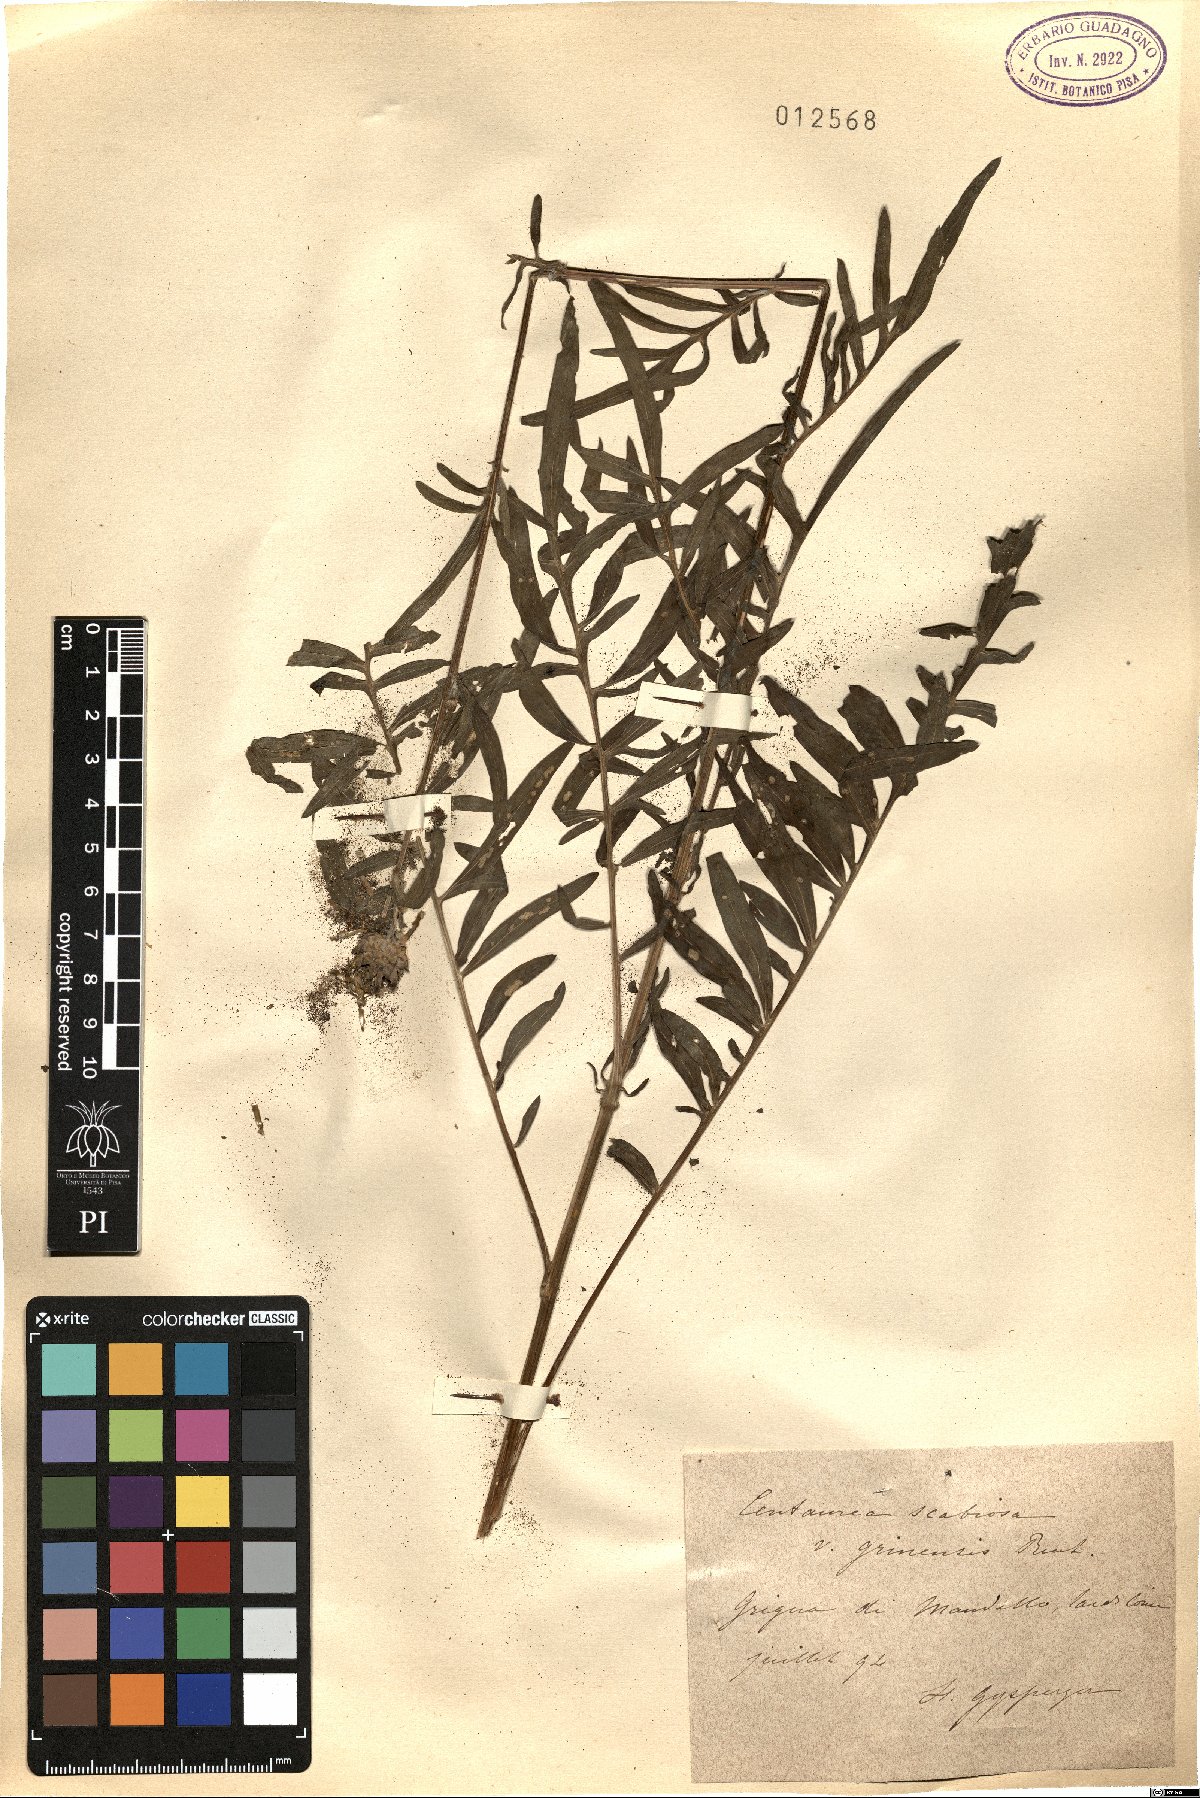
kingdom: Plantae
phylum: Tracheophyta
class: Magnoliopsida
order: Asterales
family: Asteraceae
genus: Centaurea
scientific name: Centaurea scabiosa
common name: Greater knapweed
